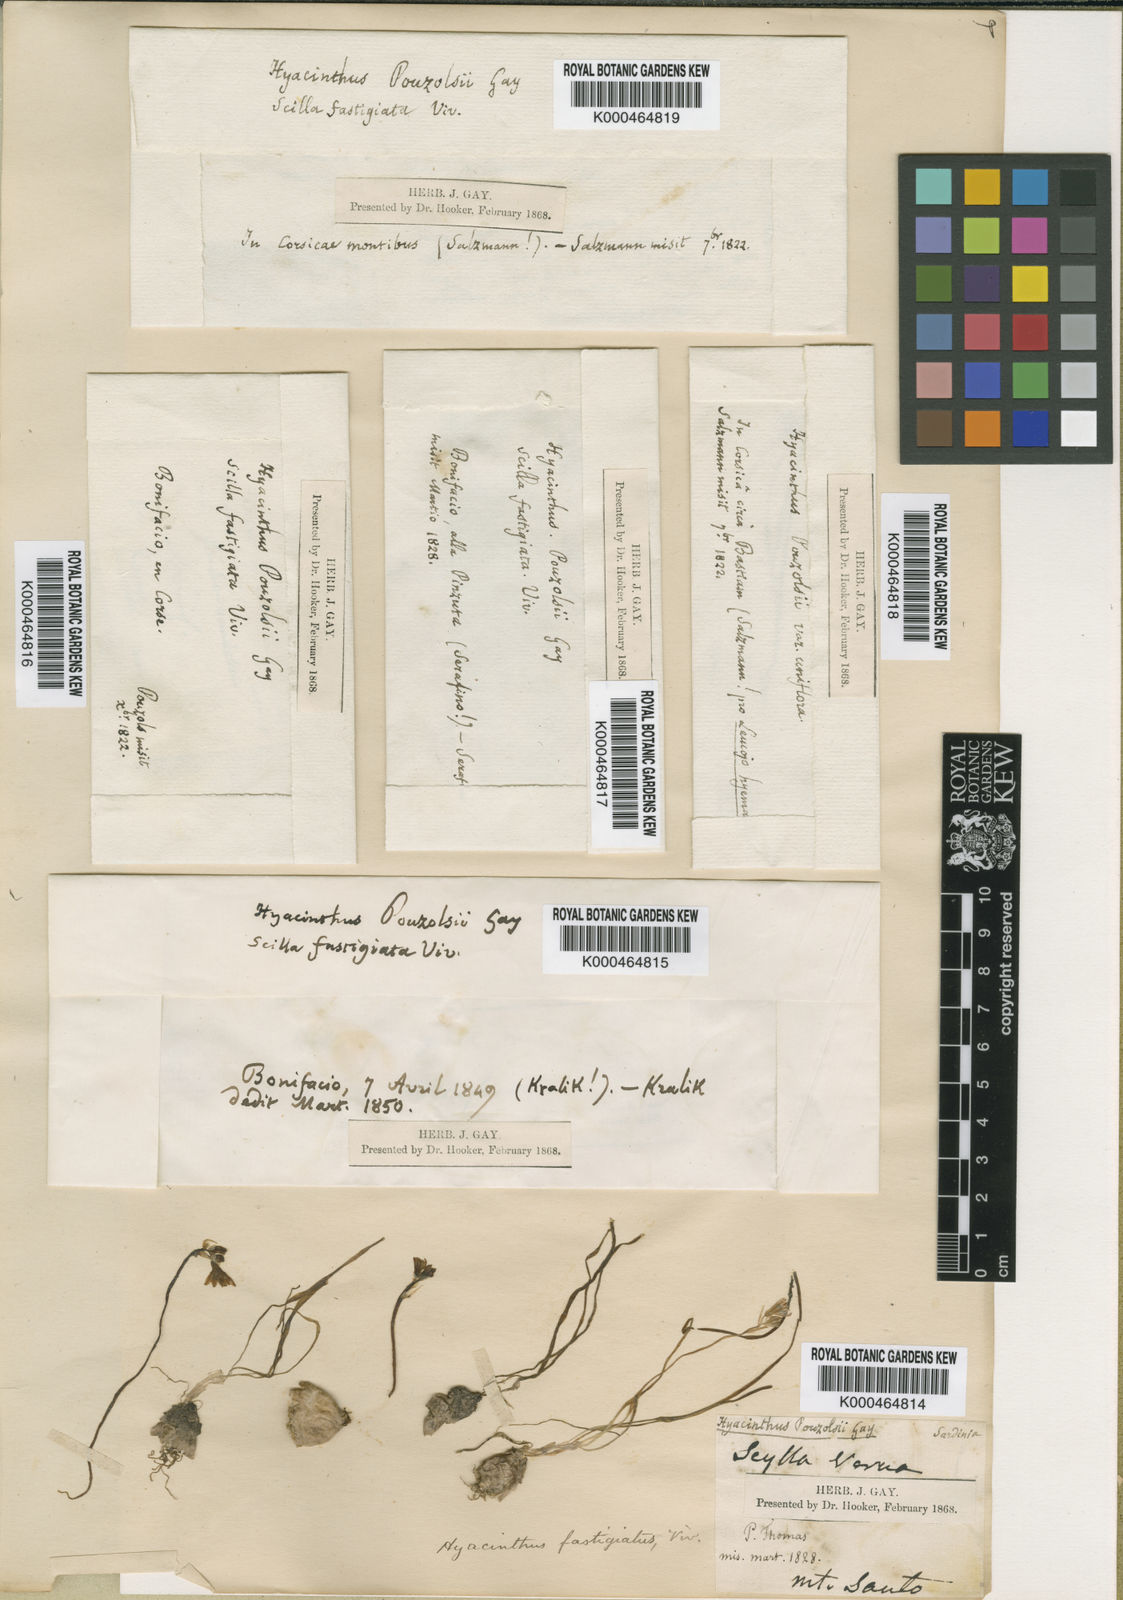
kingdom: Plantae
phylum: Tracheophyta
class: Liliopsida
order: Asparagales
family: Asparagaceae
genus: Brimeura
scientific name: Brimeura fastigiata
